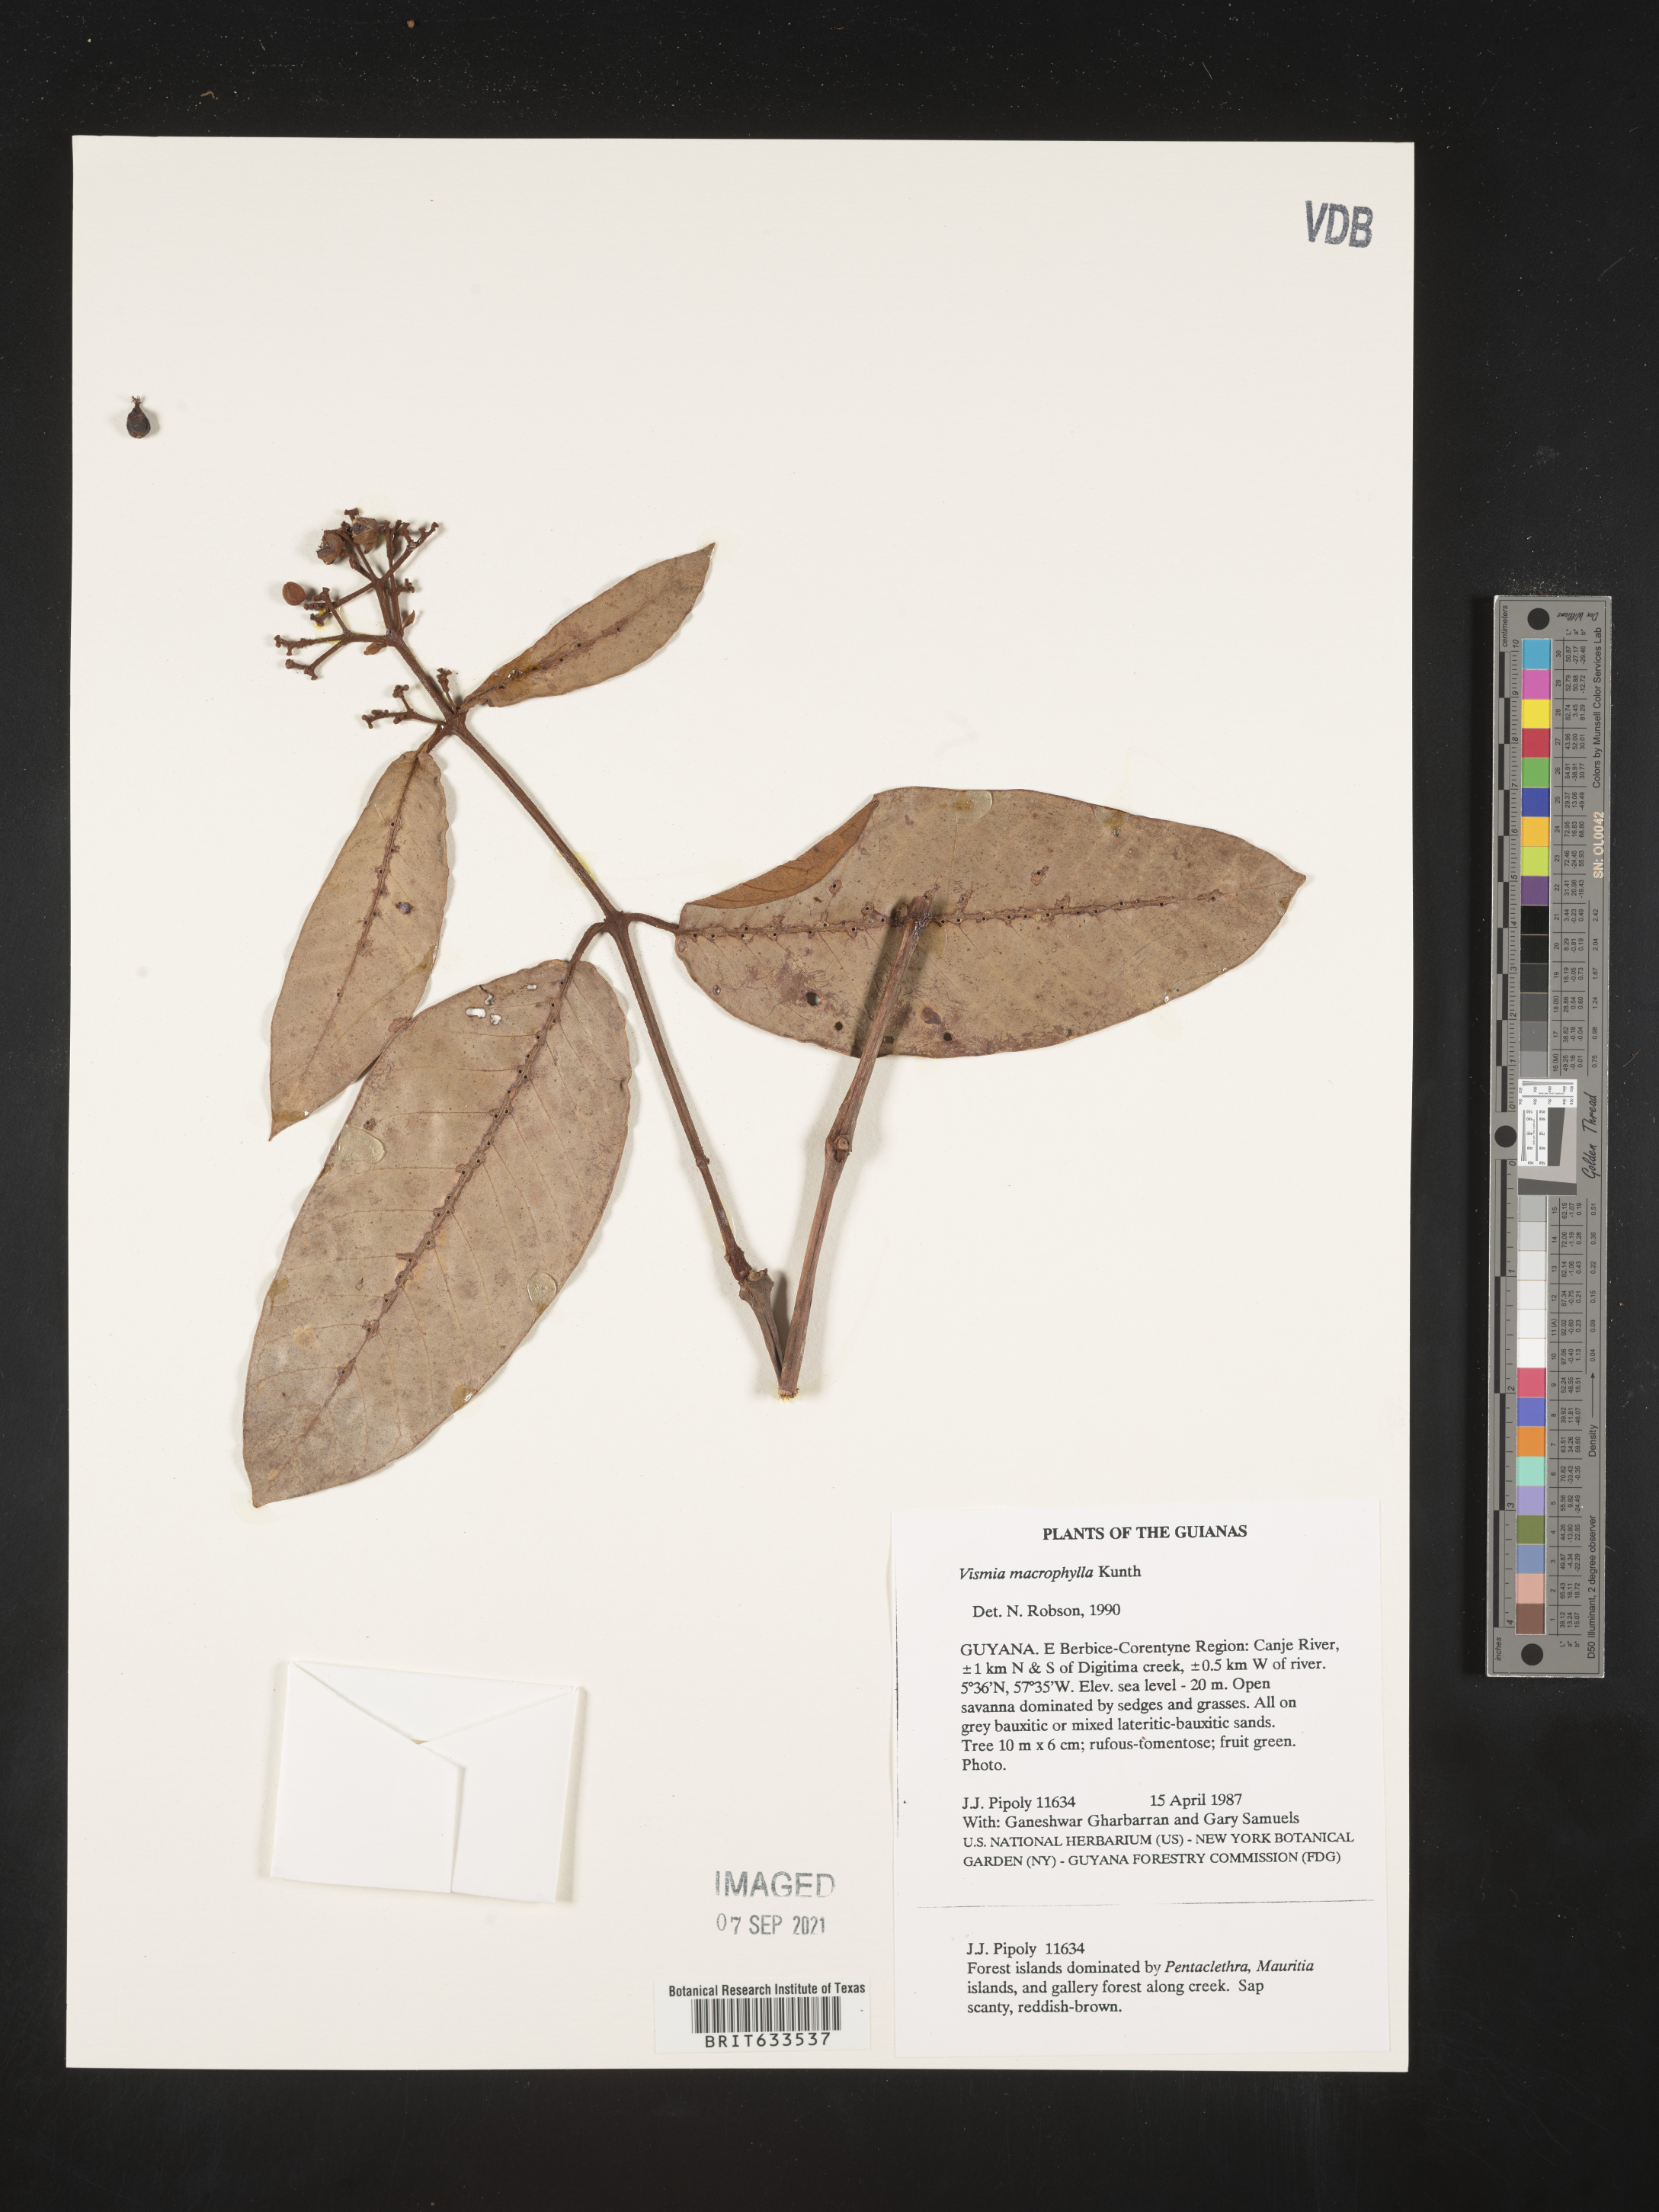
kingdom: Plantae
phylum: Tracheophyta
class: Magnoliopsida
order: Malpighiales
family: Hypericaceae
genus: Vismia
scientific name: Vismia
